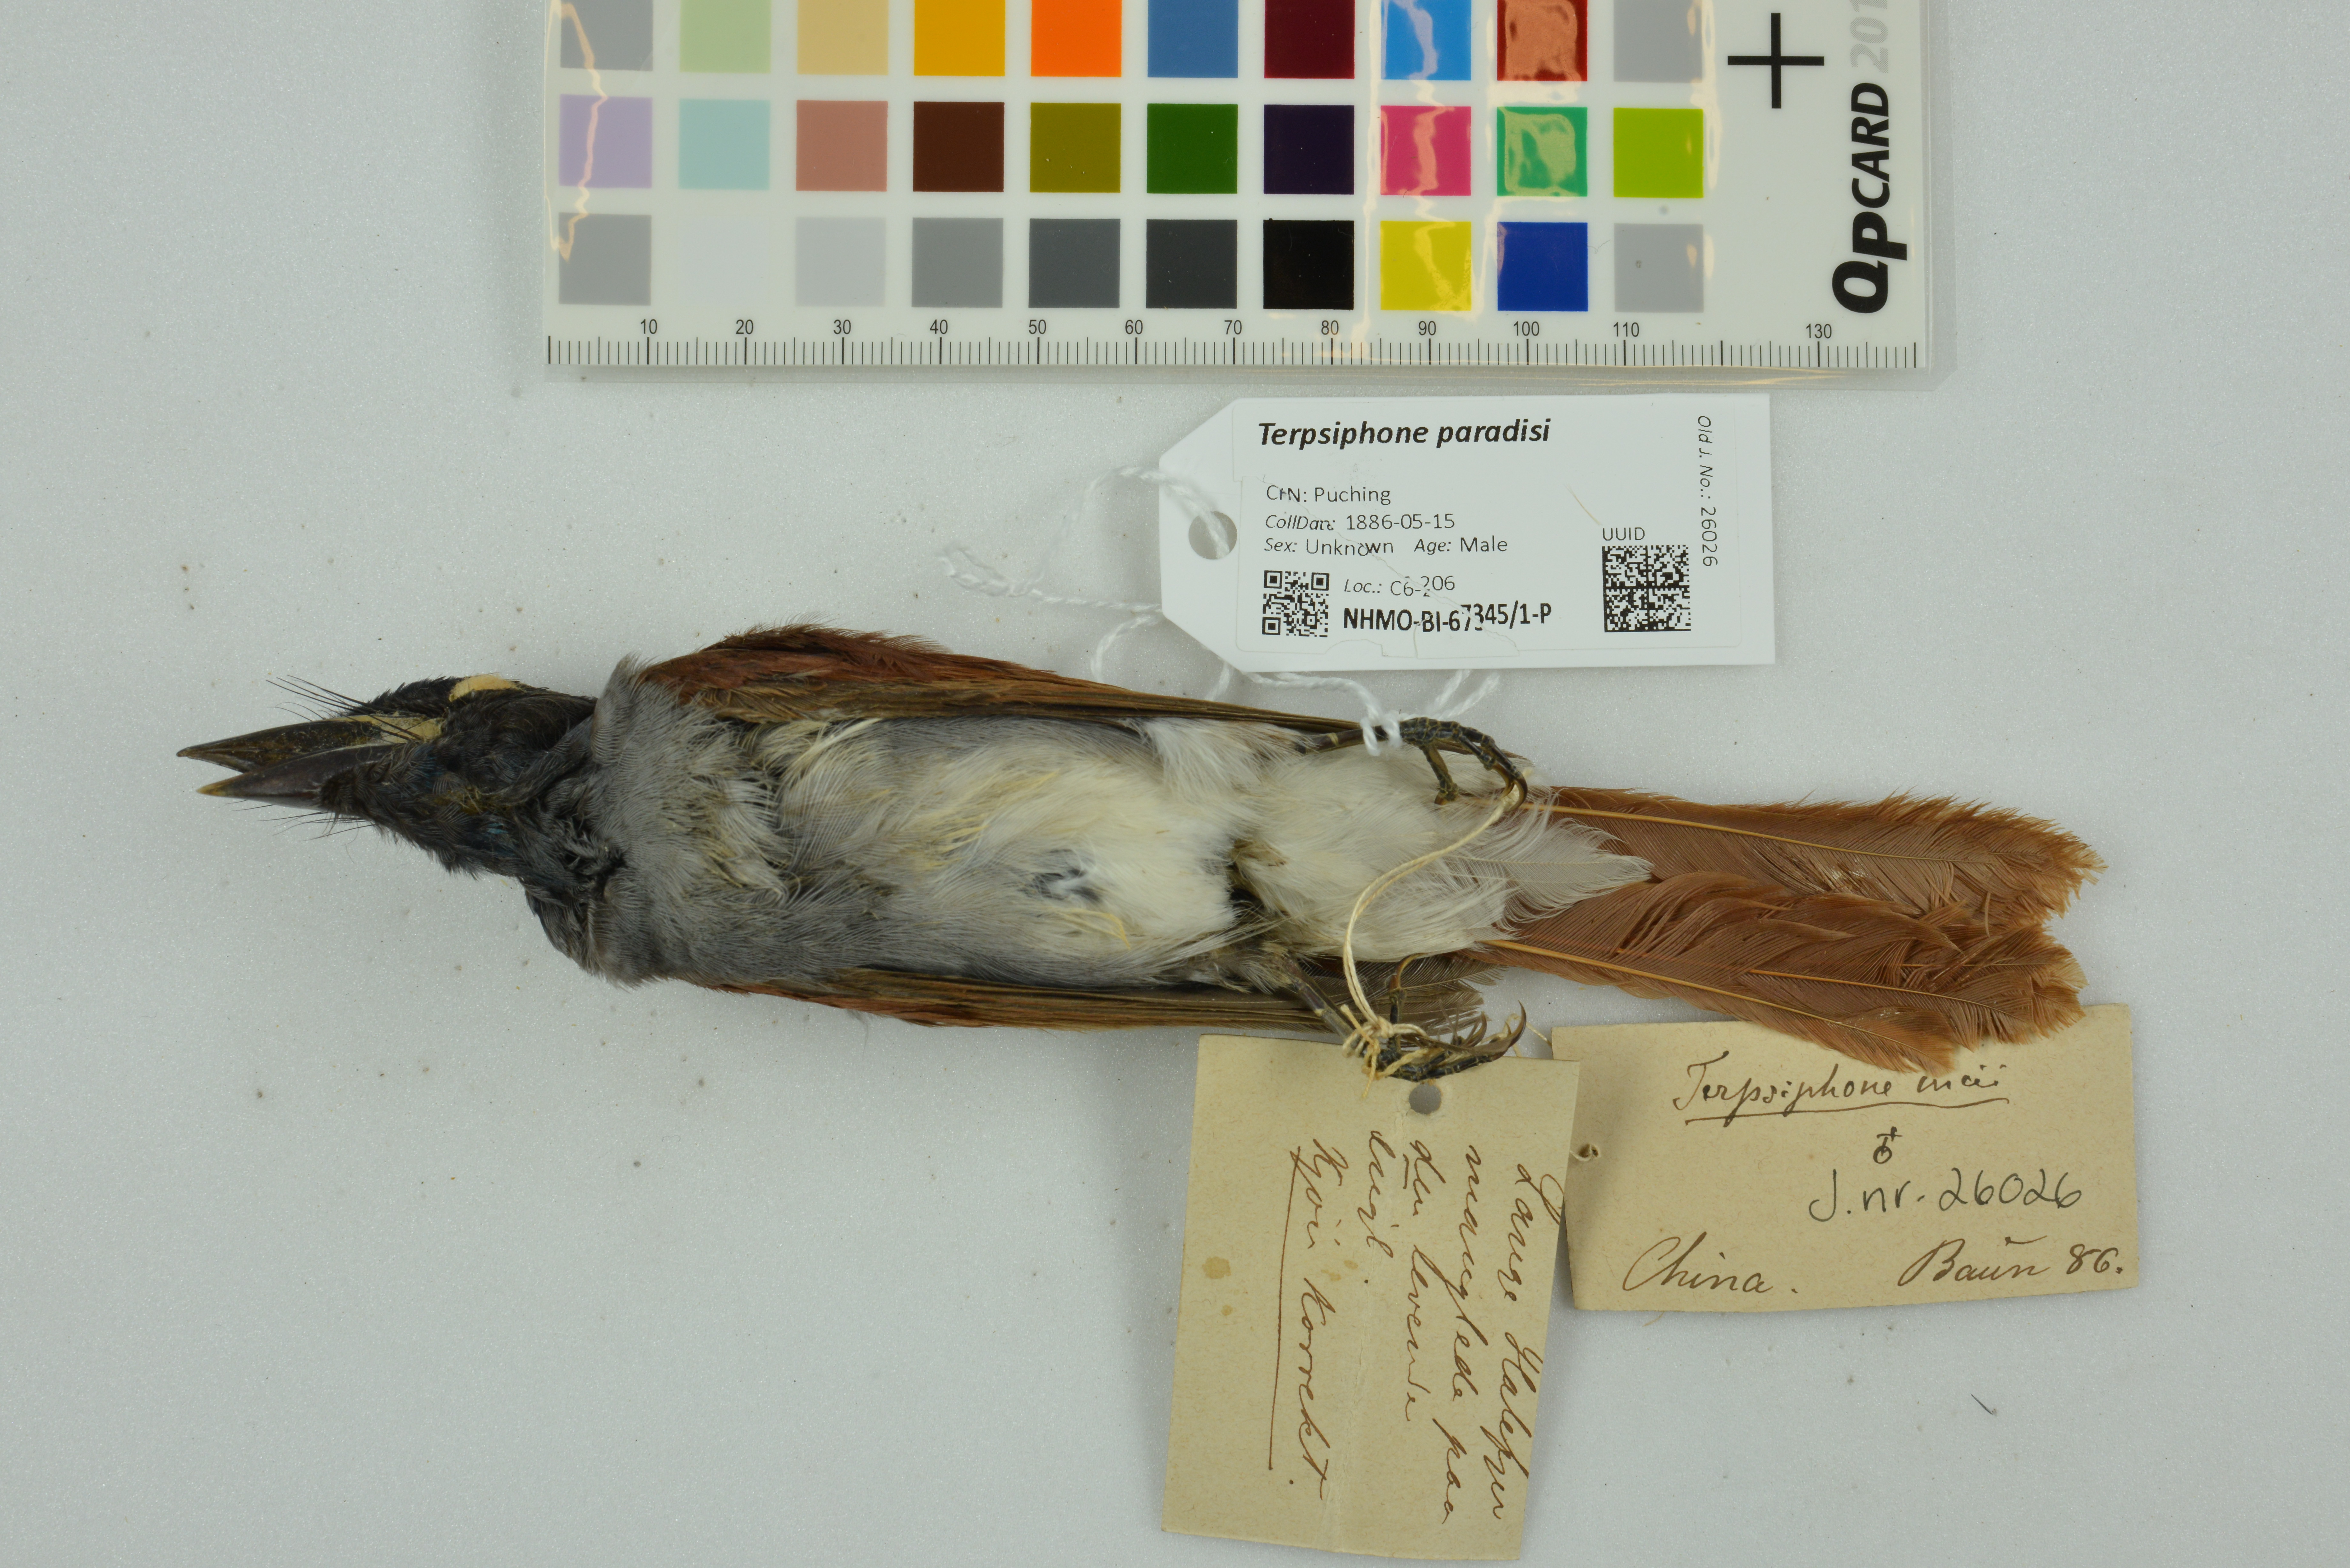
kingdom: Animalia
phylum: Chordata
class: Aves
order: Passeriformes
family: Monarchidae
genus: Terpsiphone
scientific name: Terpsiphone paradisi
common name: Indian paradise flycatcher
